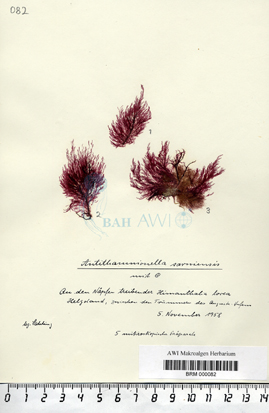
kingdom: Plantae
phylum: Rhodophyta
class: Florideophyceae
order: Ceramiales
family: Ceramiaceae
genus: Antithamnionella
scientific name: Antithamnionella ternifolia
